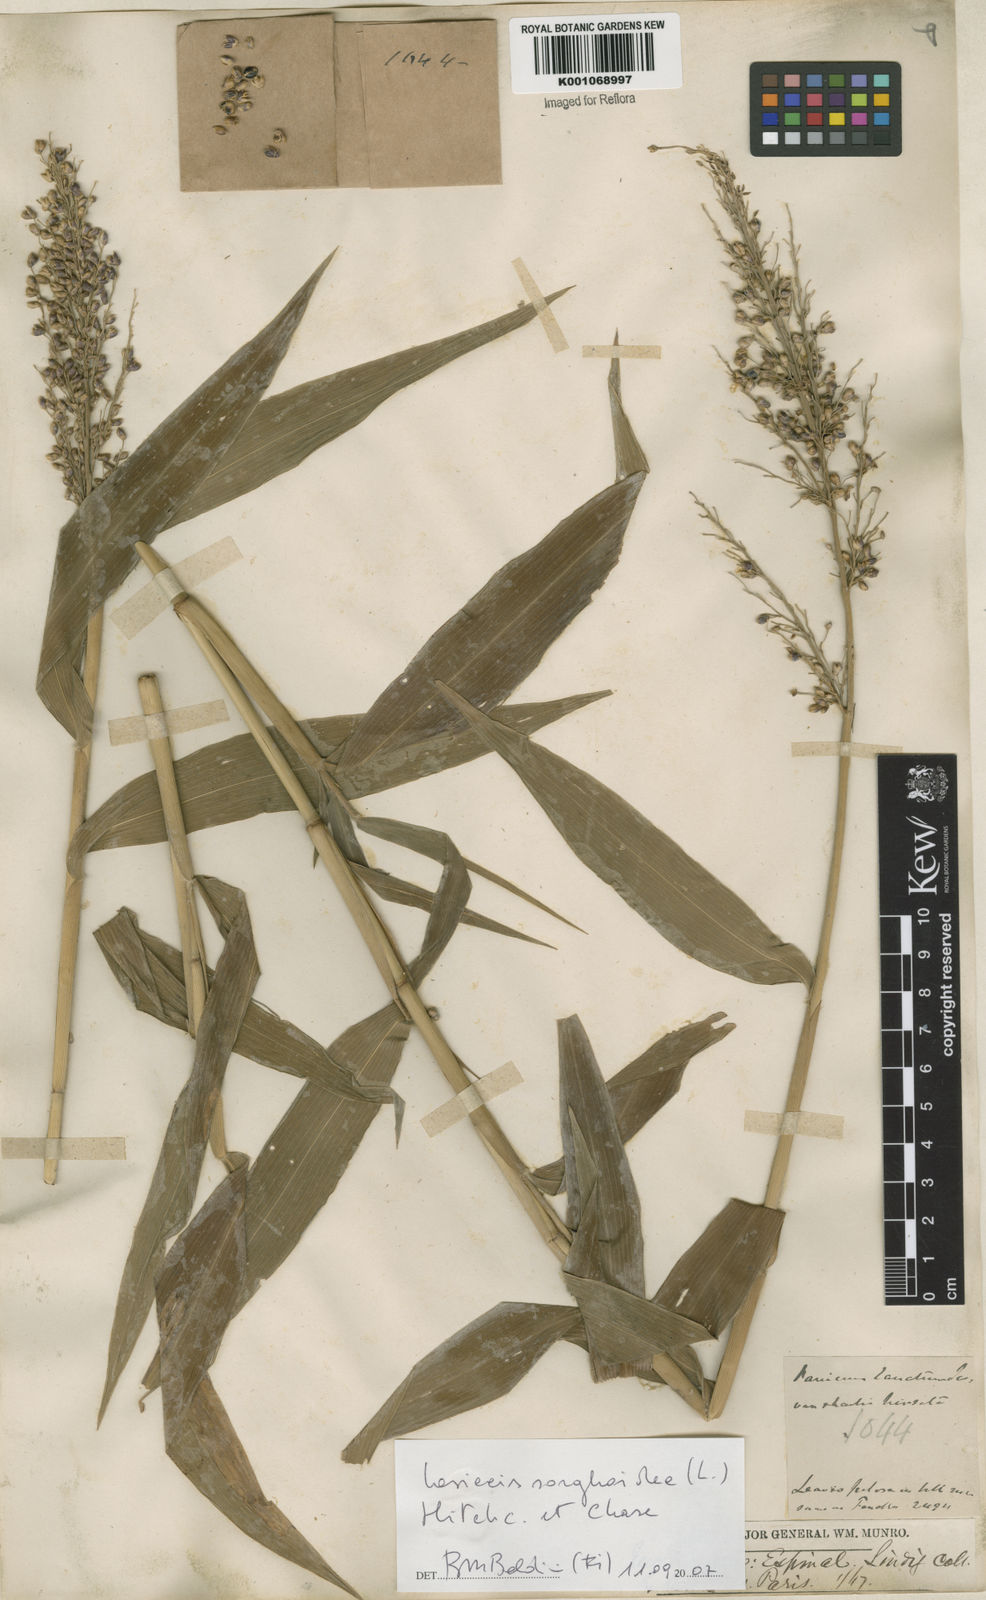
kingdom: Plantae
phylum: Tracheophyta
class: Liliopsida
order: Poales
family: Poaceae
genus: Lasiacis
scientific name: Lasiacis maculata
